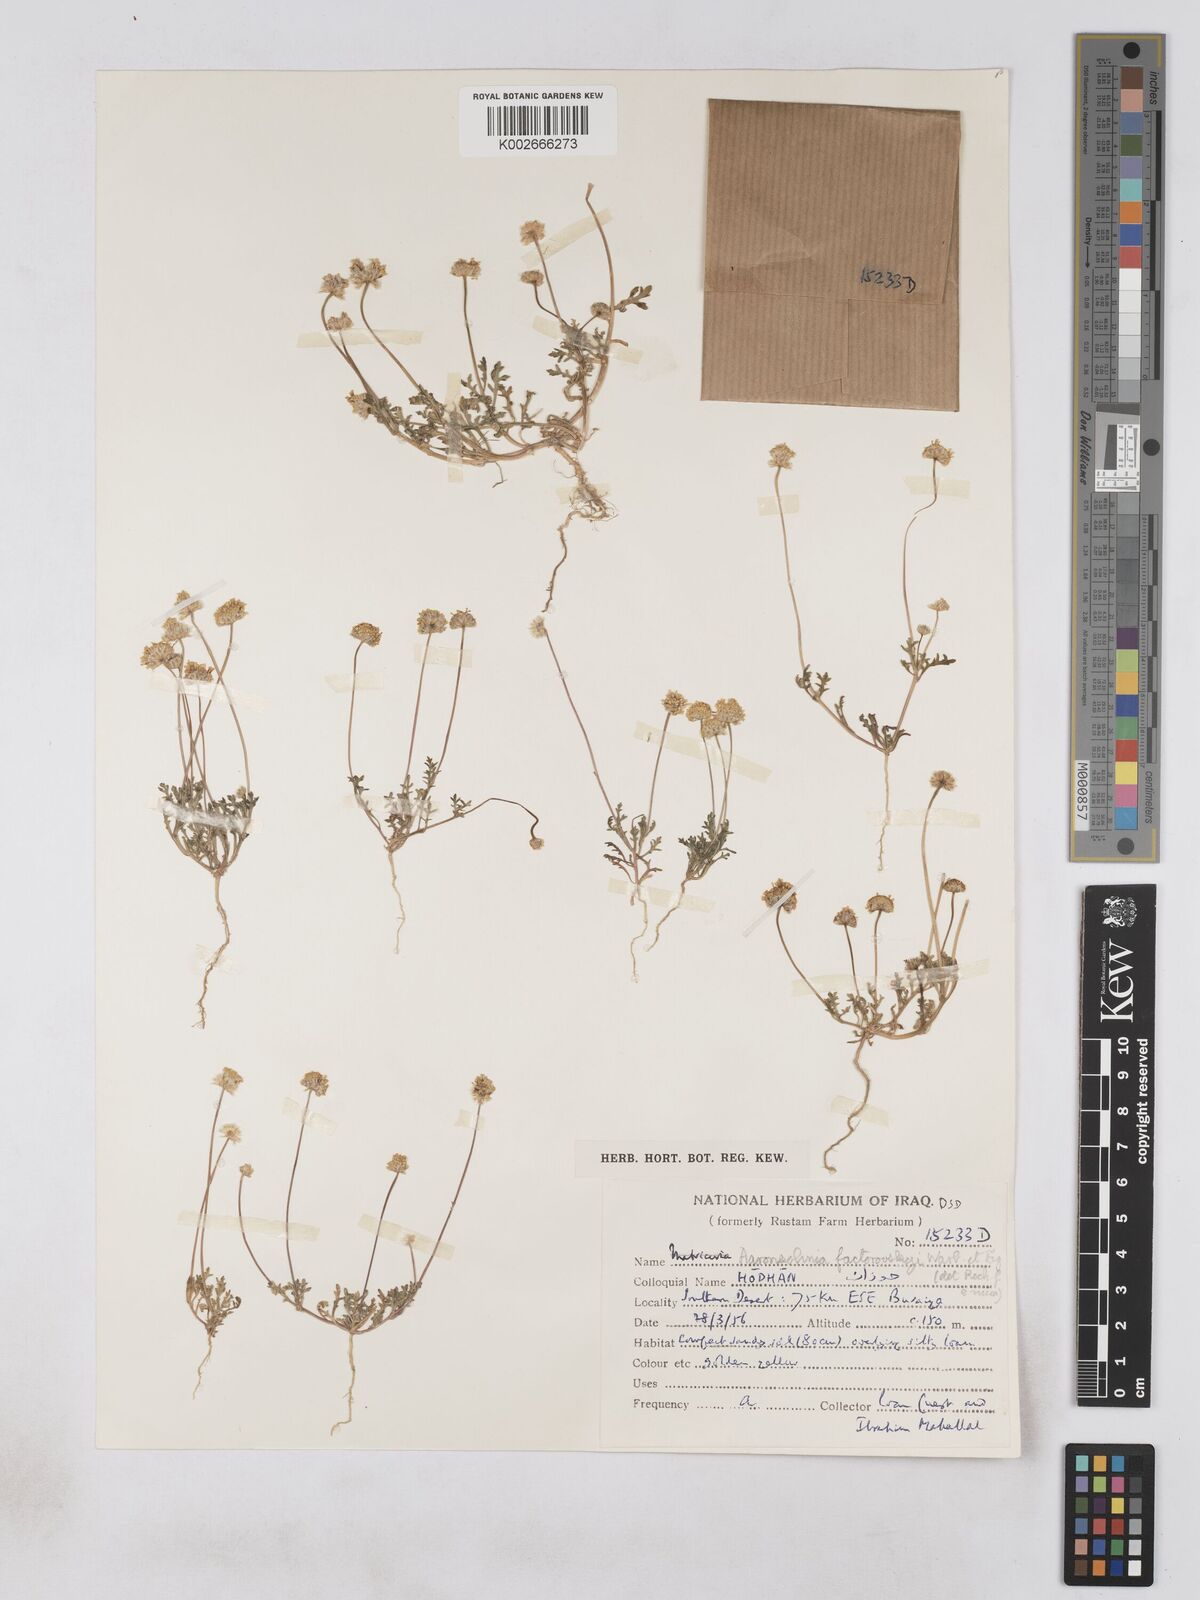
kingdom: Plantae
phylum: Tracheophyta
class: Magnoliopsida
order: Asterales
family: Asteraceae
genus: Otoglyphis
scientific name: Otoglyphis factorovskyi
